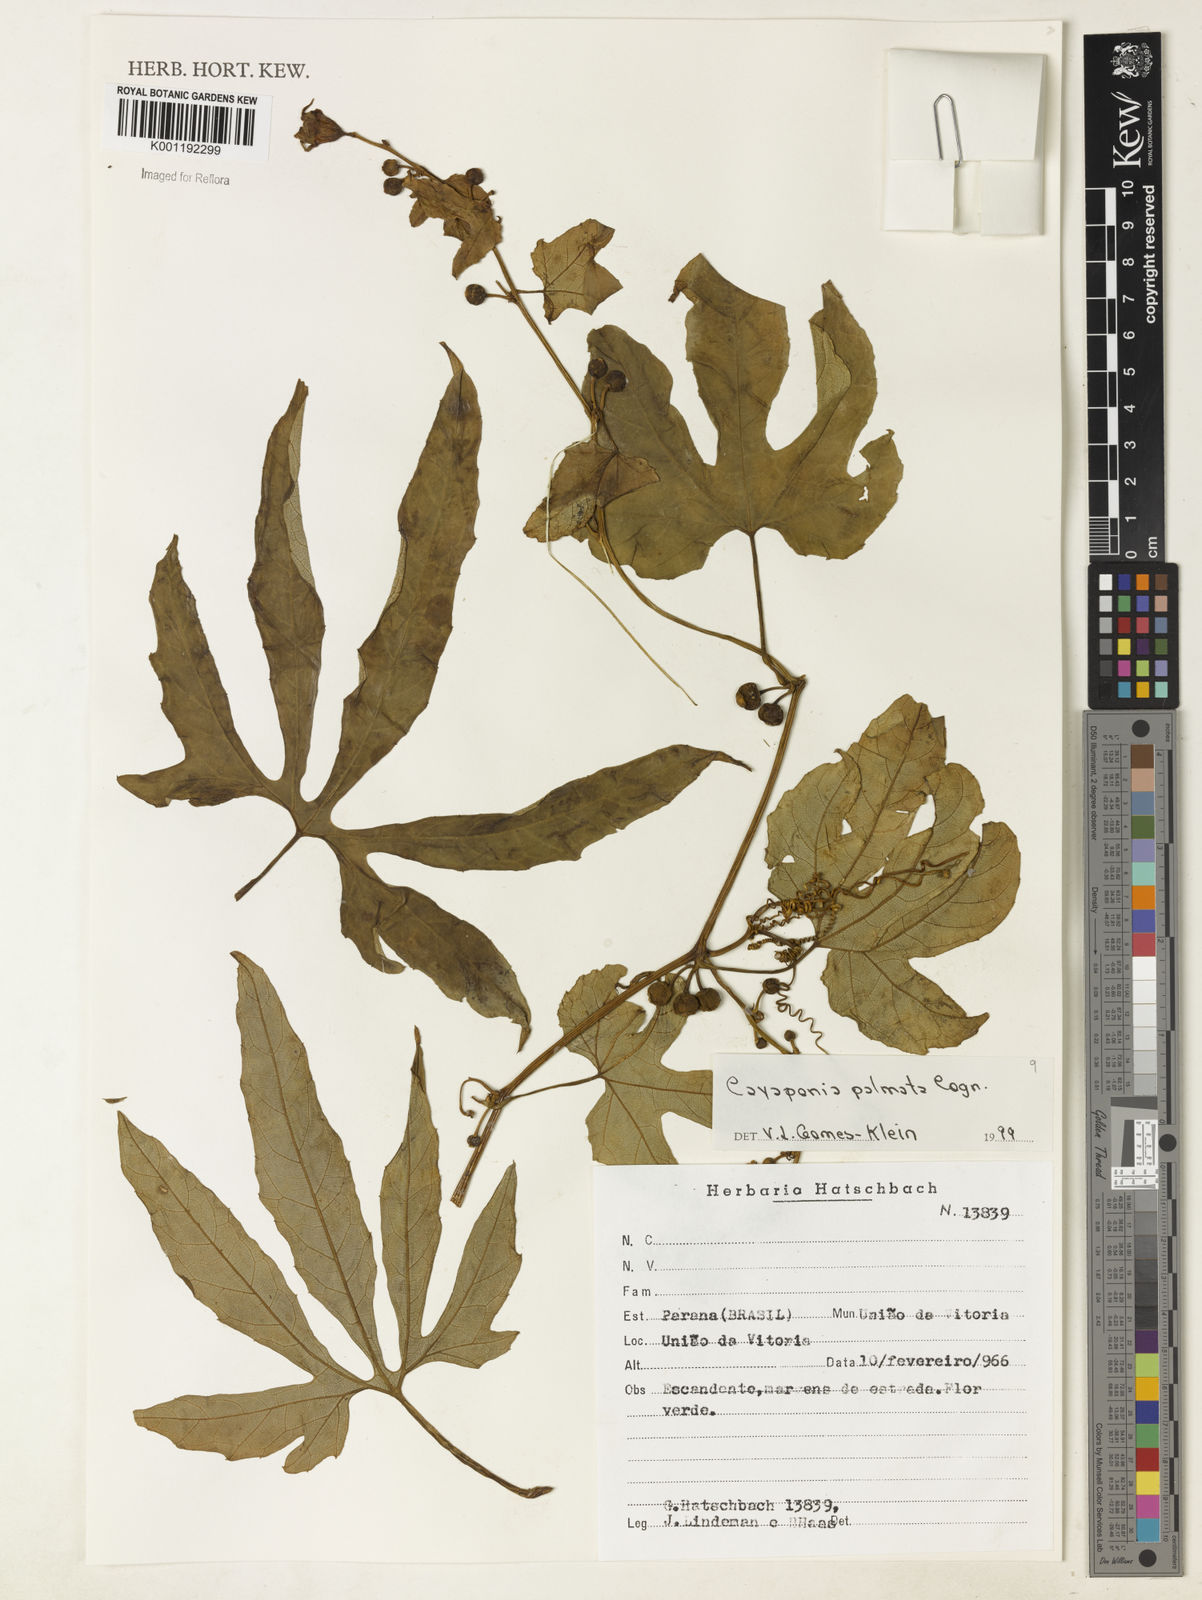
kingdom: Plantae
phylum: Tracheophyta
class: Magnoliopsida
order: Cucurbitales
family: Cucurbitaceae
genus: Cayaponia
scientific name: Cayaponia palmata
